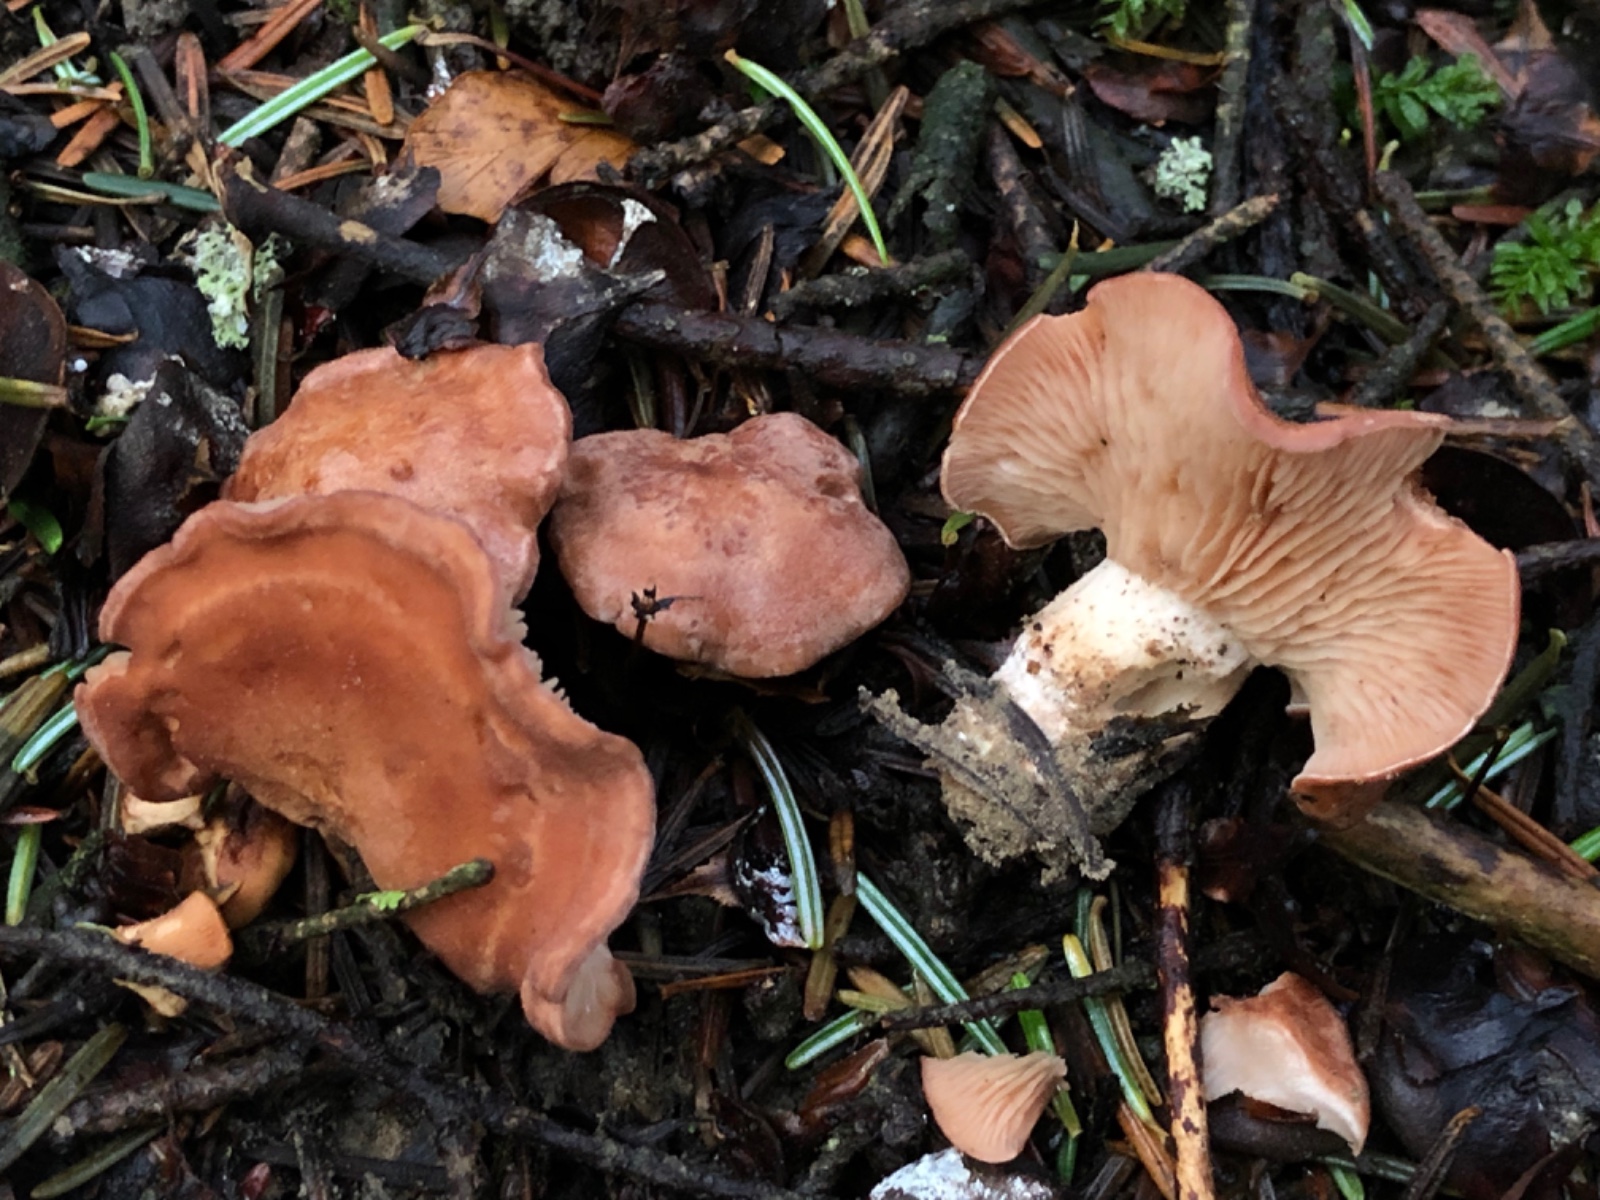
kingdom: Fungi
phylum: Basidiomycota
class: Agaricomycetes
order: Agaricales
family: Entolomataceae
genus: Clitopilus
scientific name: Clitopilus geminus
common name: kødfarvet troldhat
